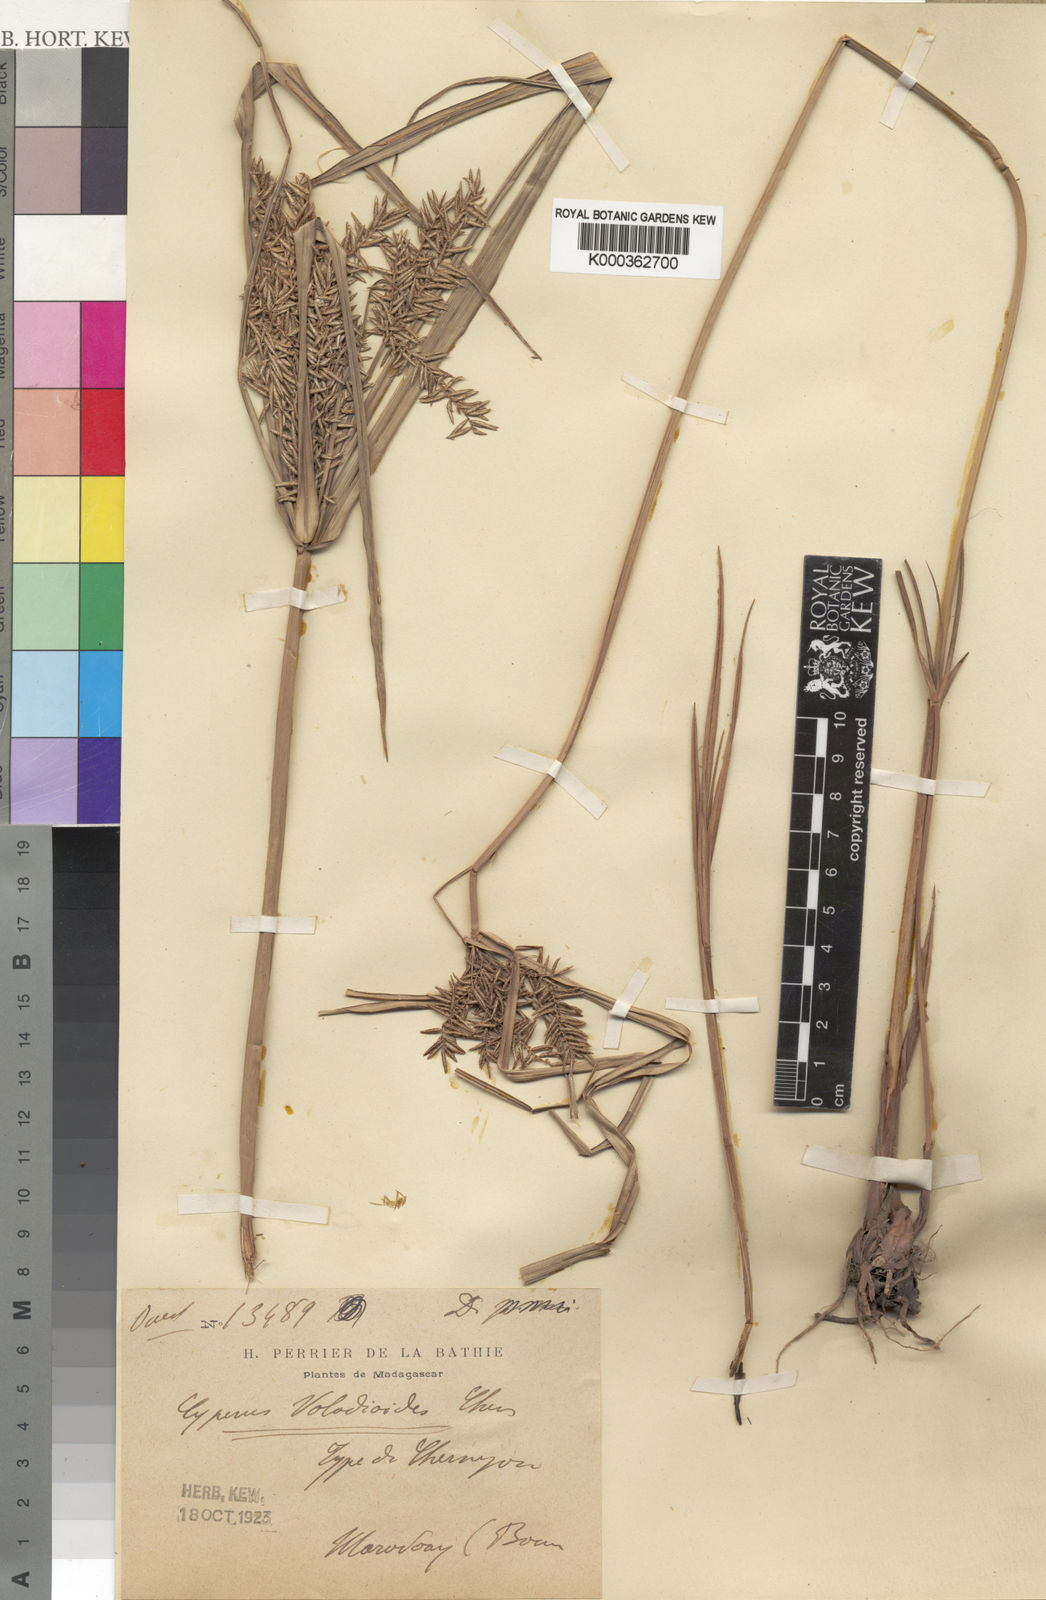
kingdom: Plantae
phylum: Tracheophyta
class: Liliopsida
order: Poales
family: Cyperaceae
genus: Cyperus
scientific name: Cyperus mangorensis
